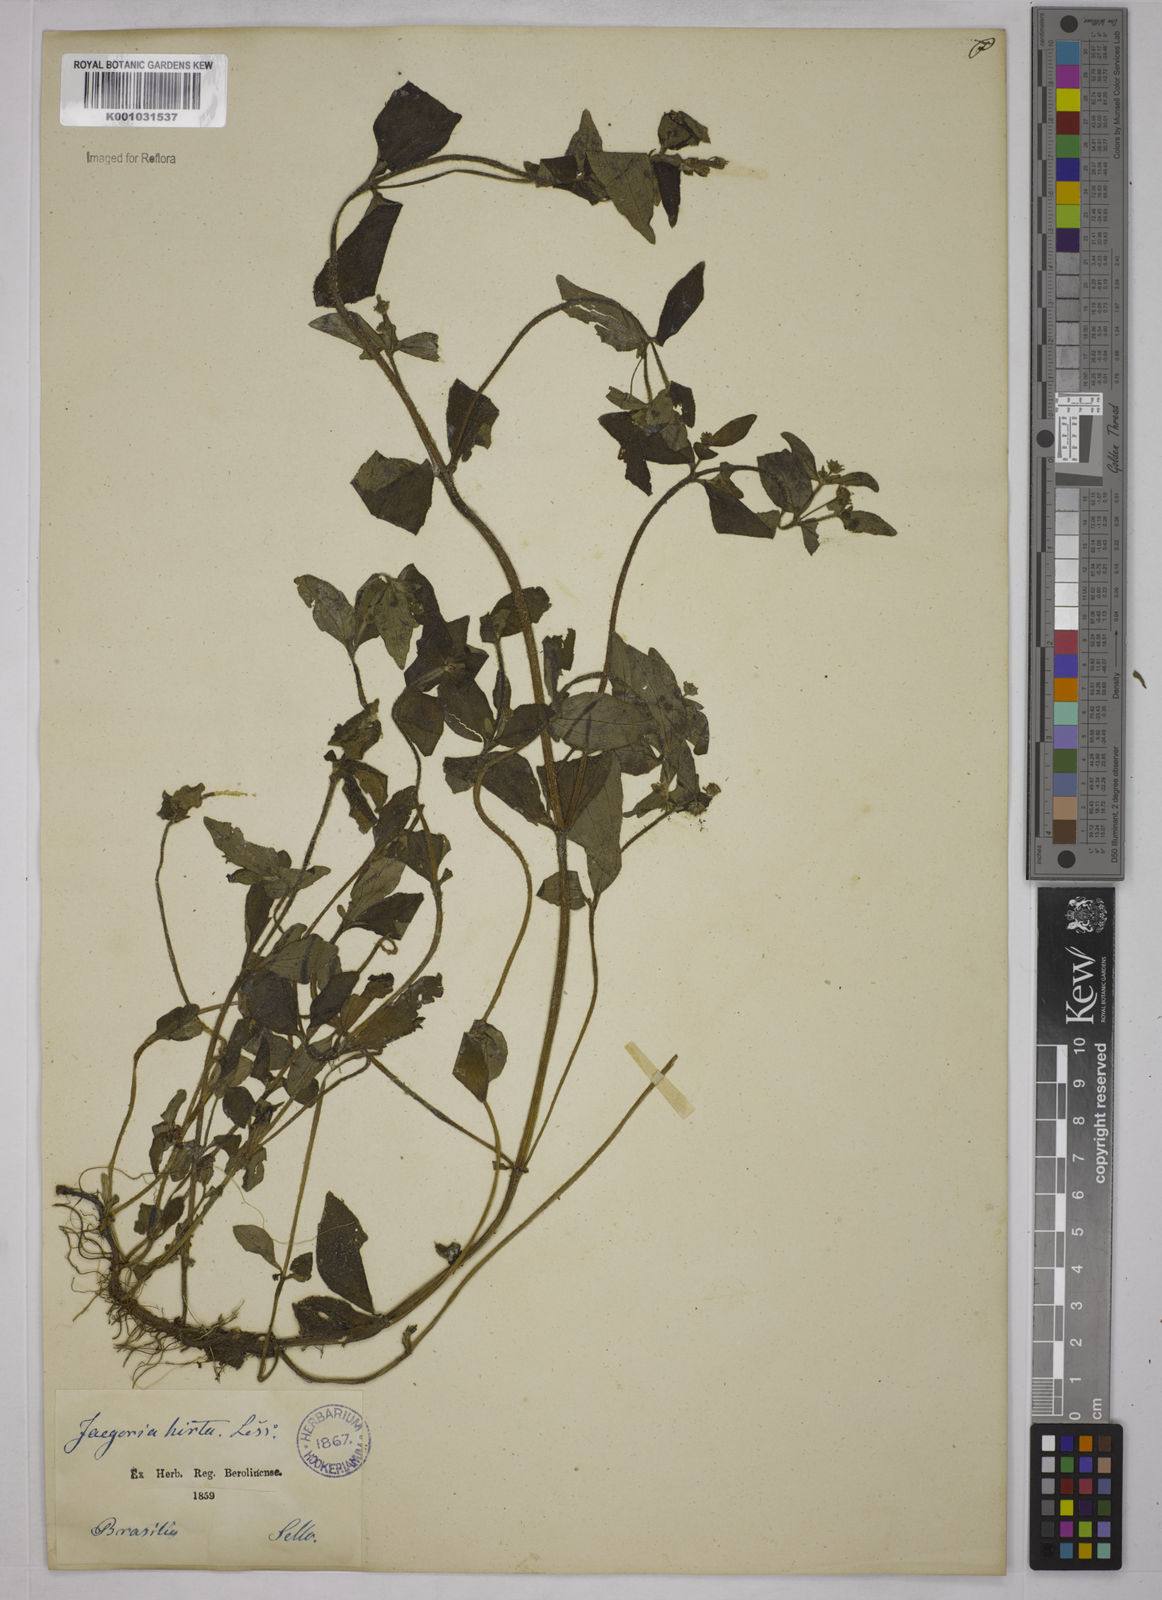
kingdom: Plantae
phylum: Tracheophyta
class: Magnoliopsida
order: Asterales
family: Asteraceae
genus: Jaegeria
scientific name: Jaegeria hirta
